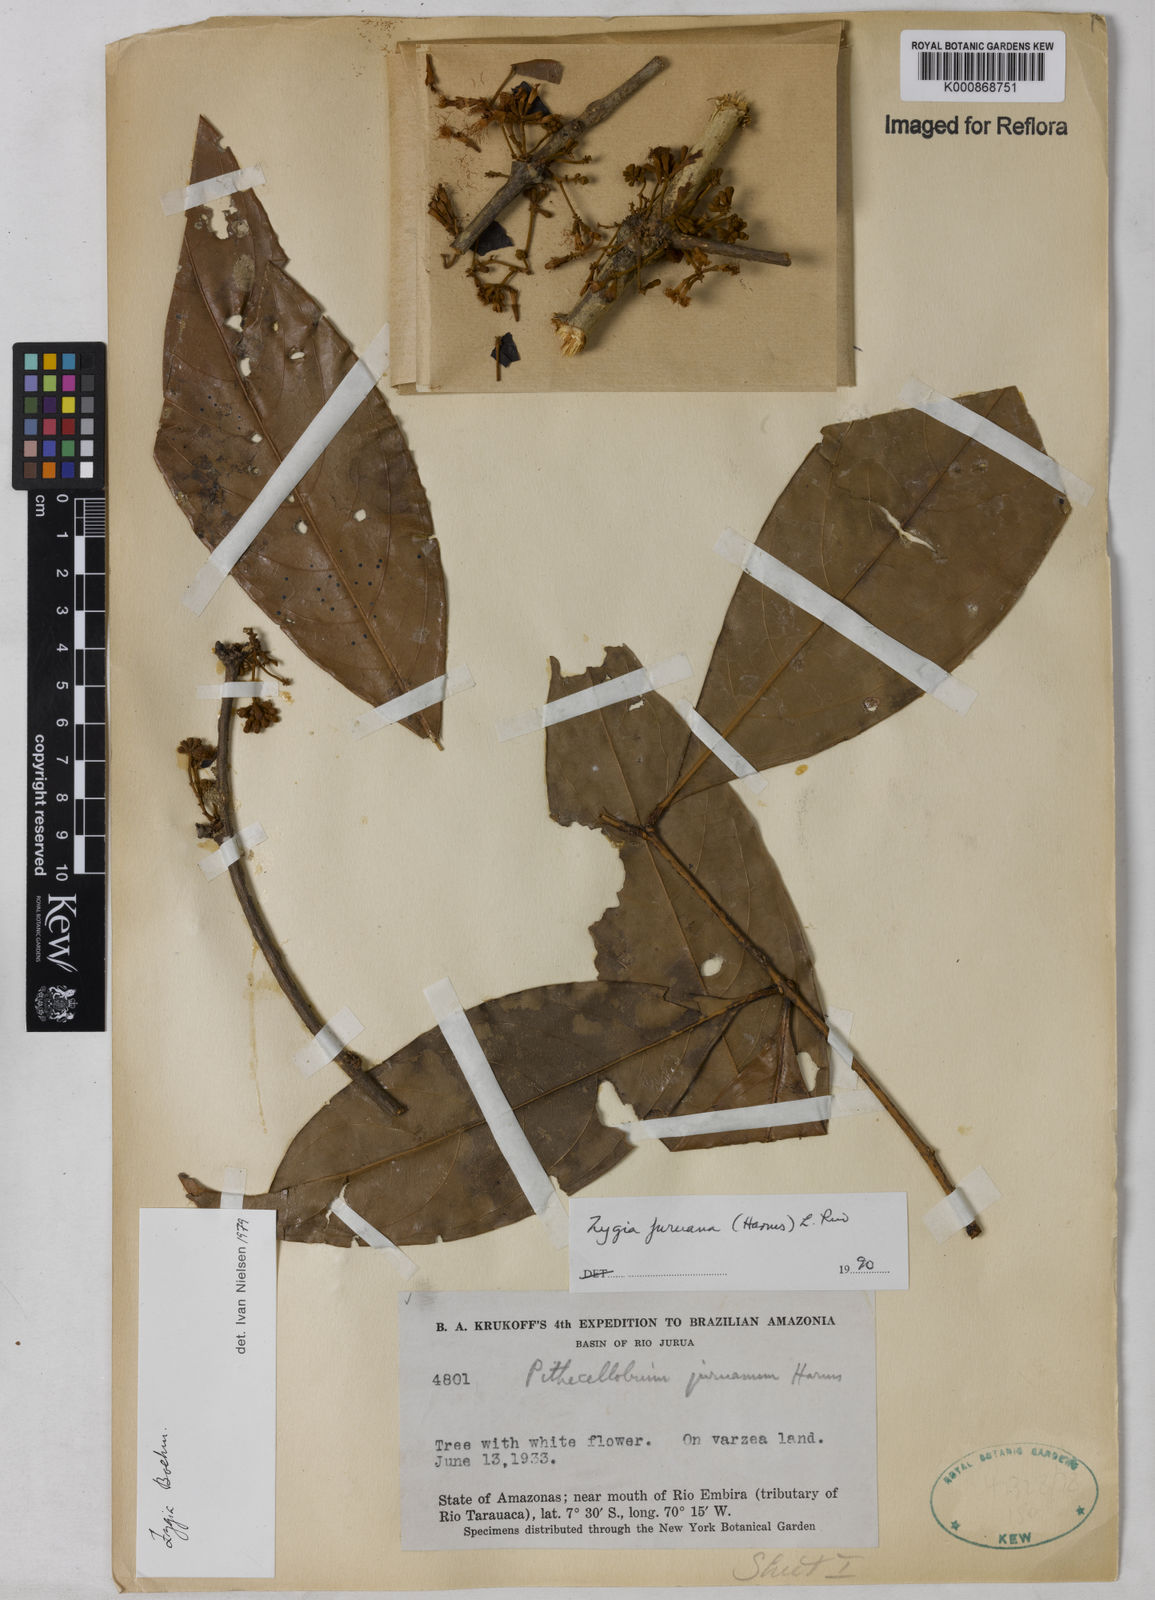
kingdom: Plantae
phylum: Tracheophyta
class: Magnoliopsida
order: Fabales
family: Fabaceae
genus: Zygia
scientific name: Zygia juruana
